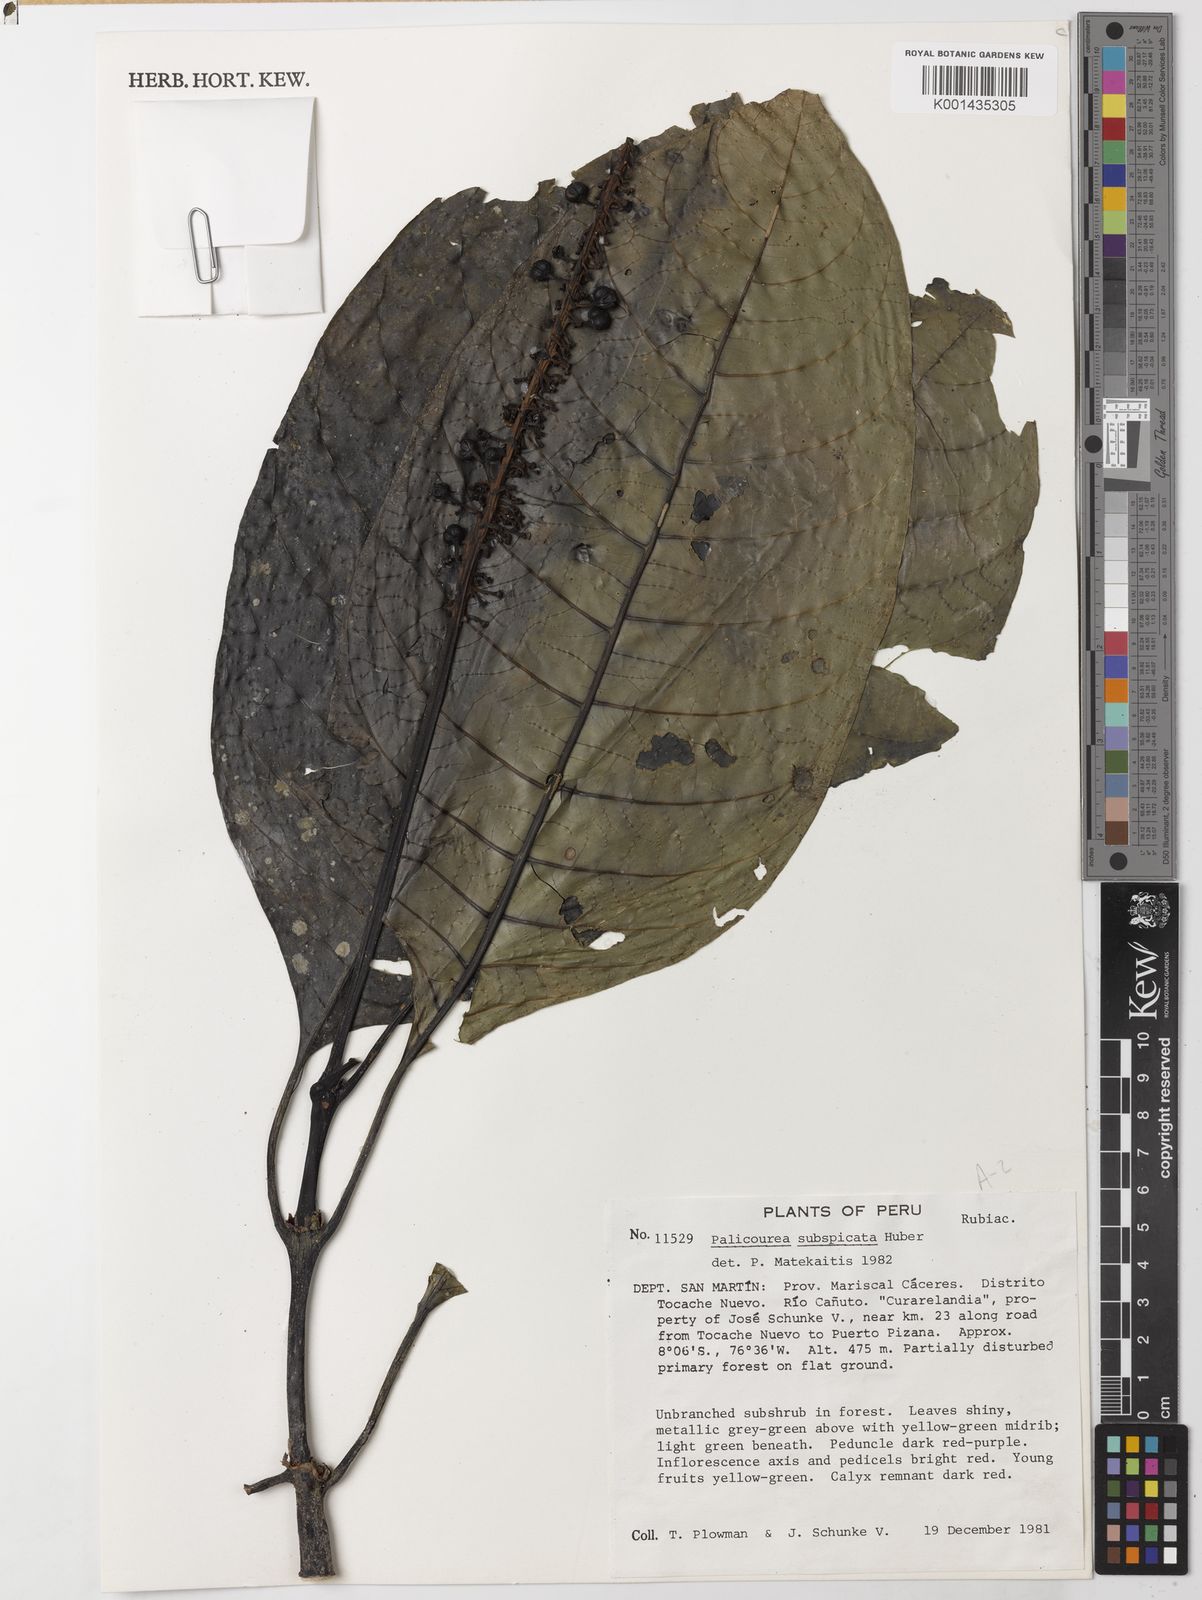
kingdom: Plantae
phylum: Tracheophyta
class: Magnoliopsida
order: Gentianales
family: Rubiaceae
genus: Palicourea
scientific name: Palicourea subspicata
